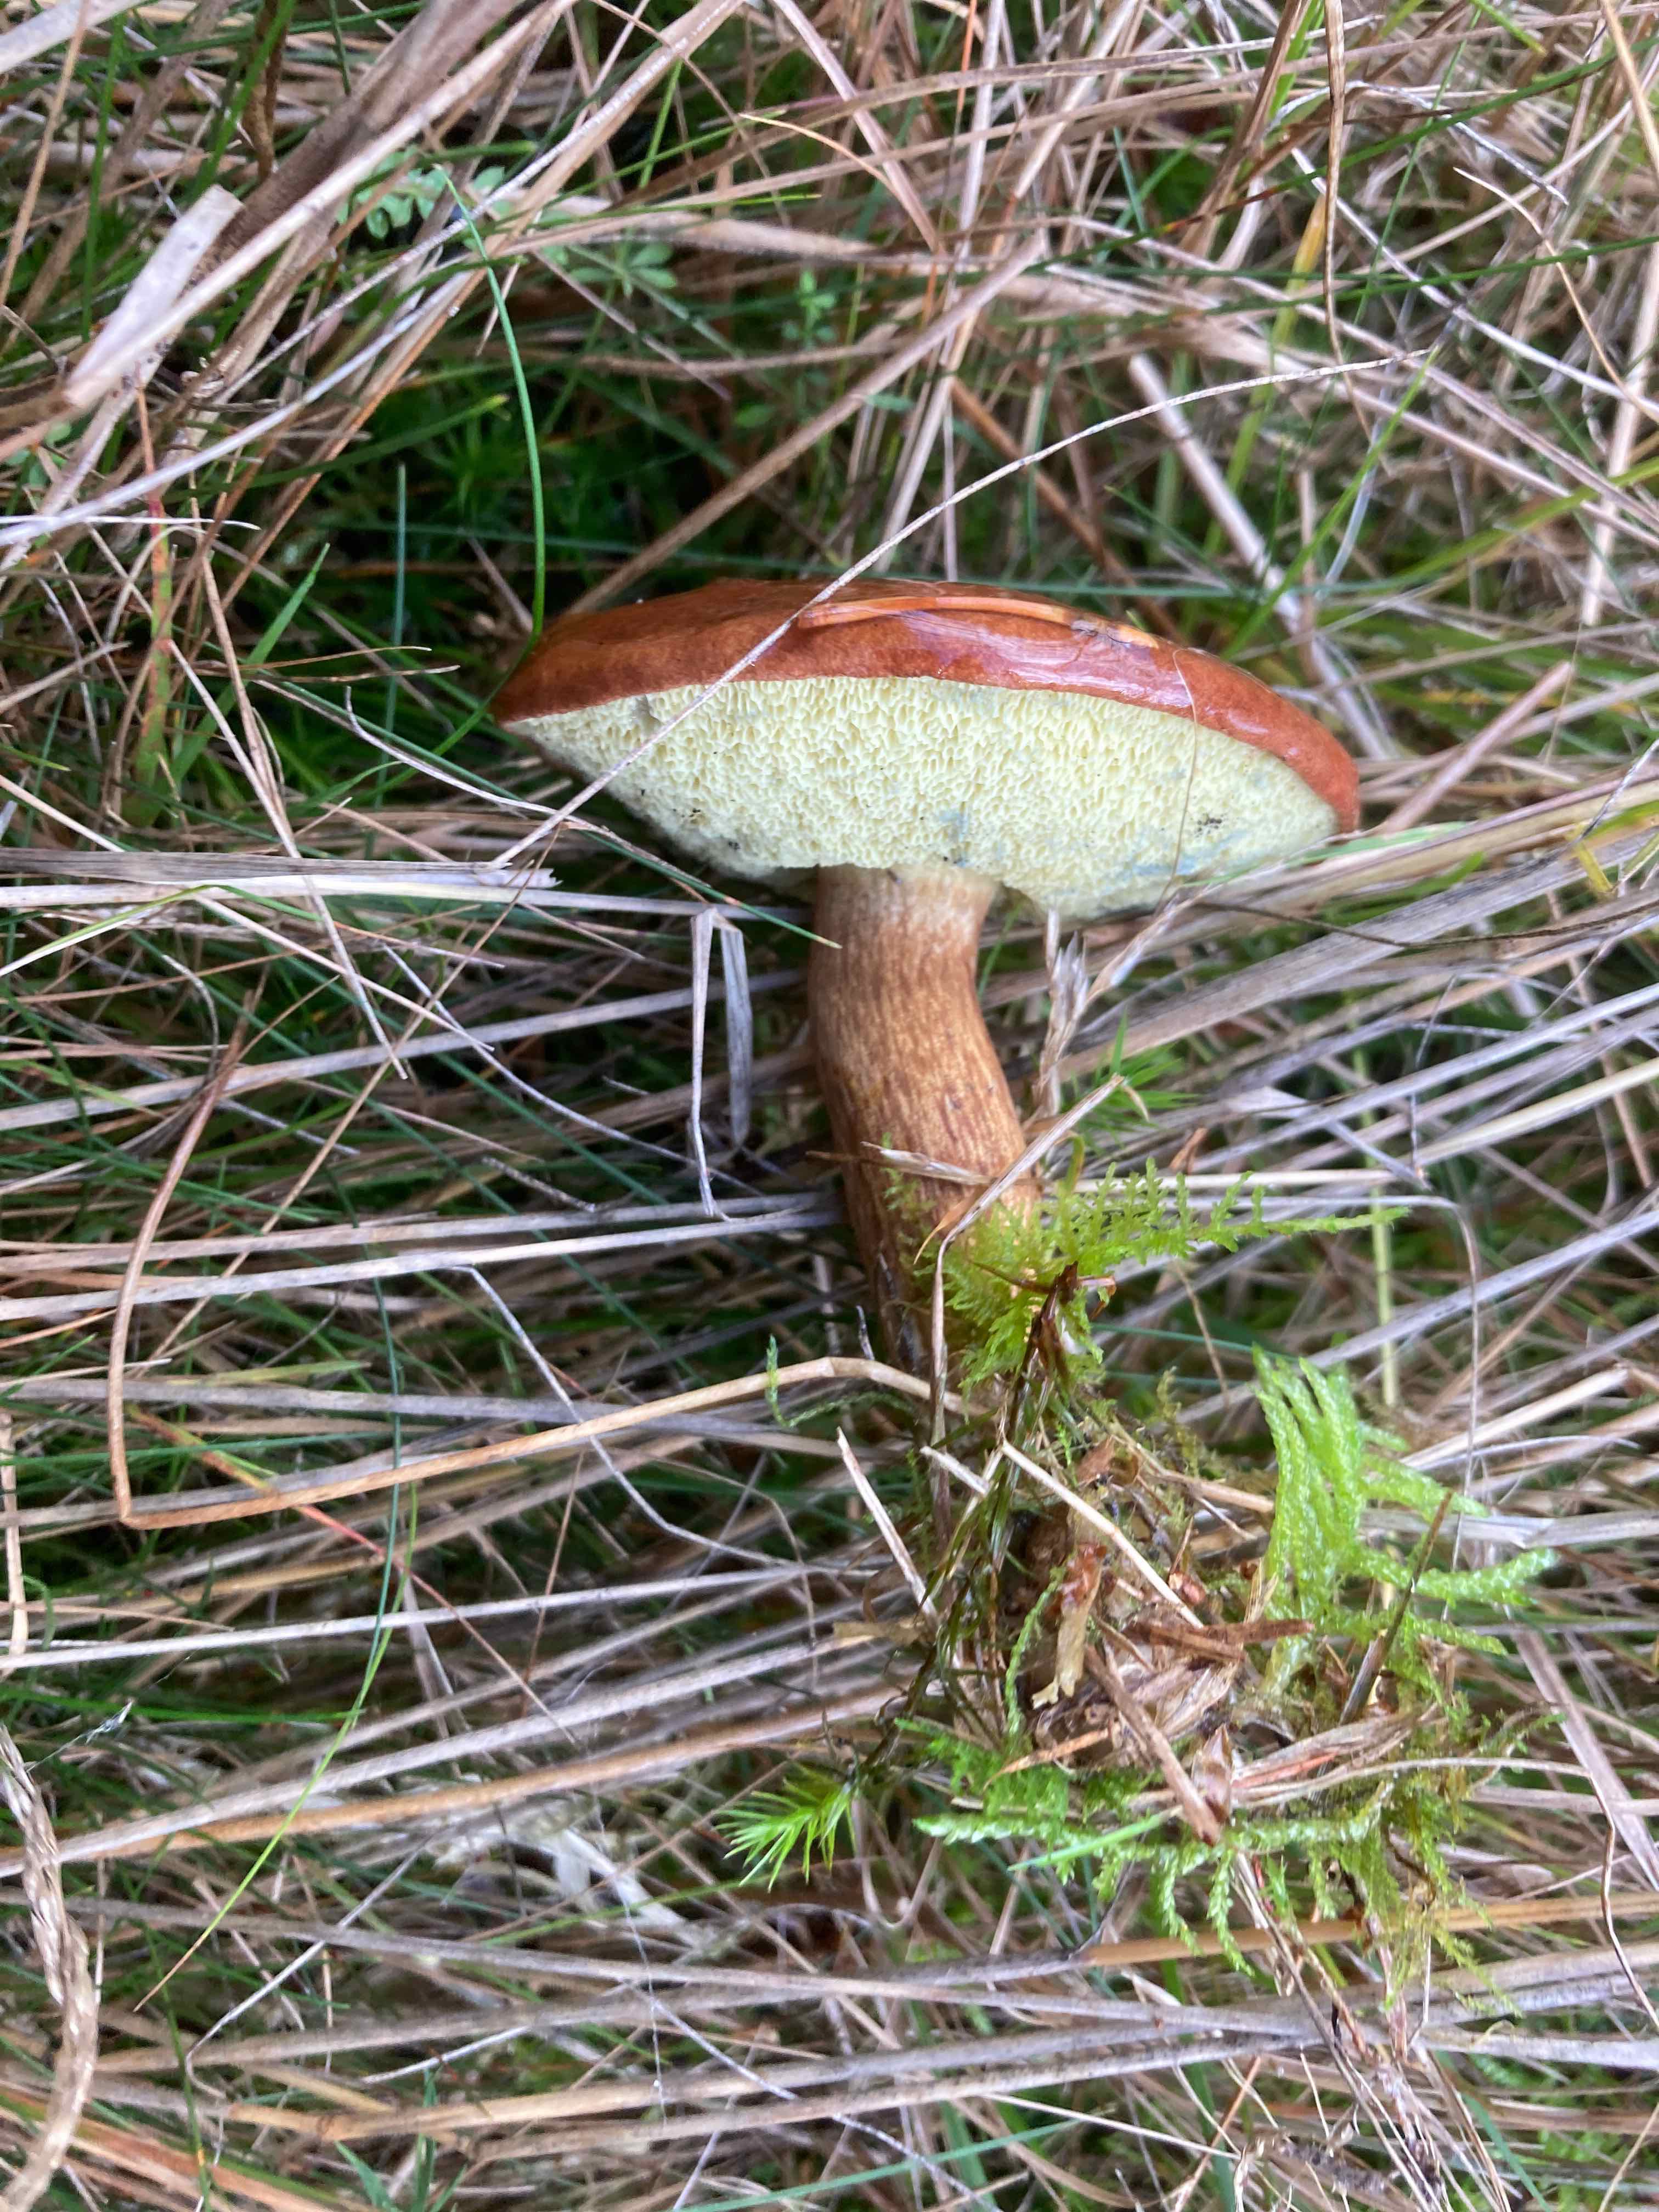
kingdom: Fungi
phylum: Basidiomycota
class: Agaricomycetes
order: Boletales
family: Boletaceae
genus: Imleria
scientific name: Imleria badia
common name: brunstokket rørhat
